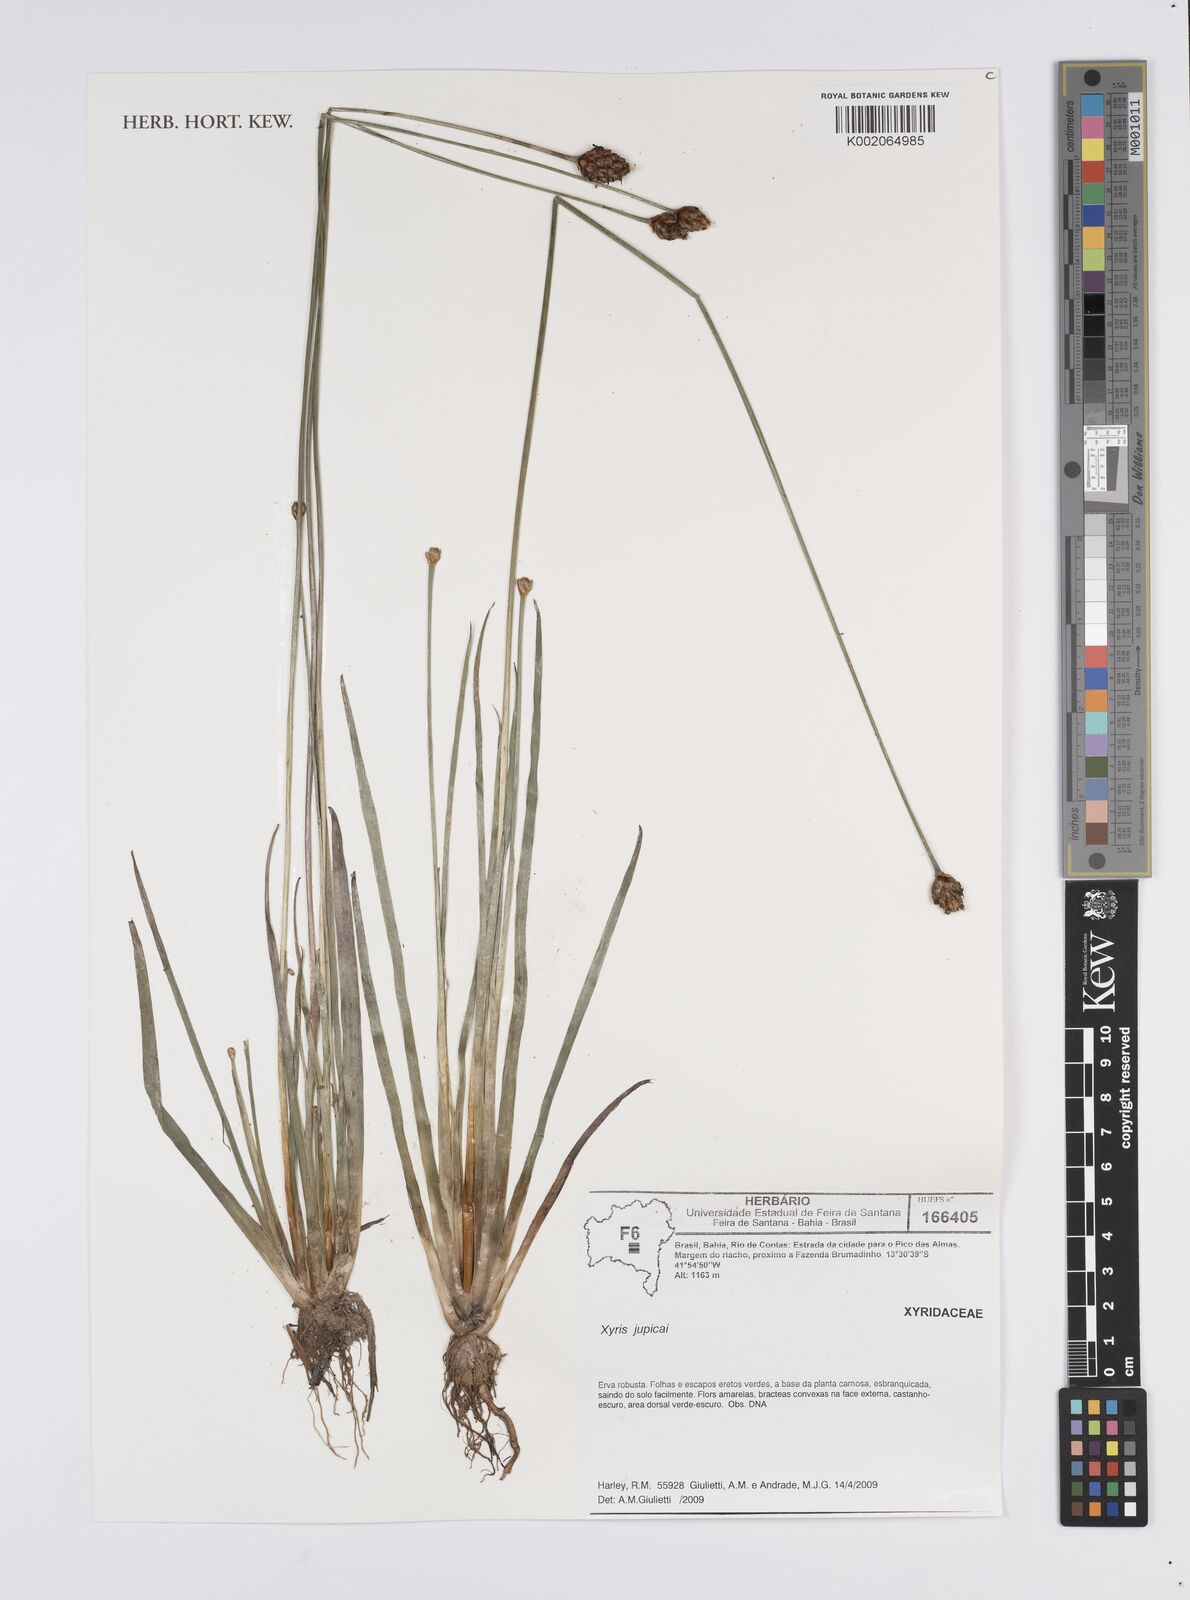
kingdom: Plantae
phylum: Tracheophyta
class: Liliopsida
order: Poales
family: Xyridaceae
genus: Xyris
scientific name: Xyris jupicai
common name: Richard's yelloweyed grass
